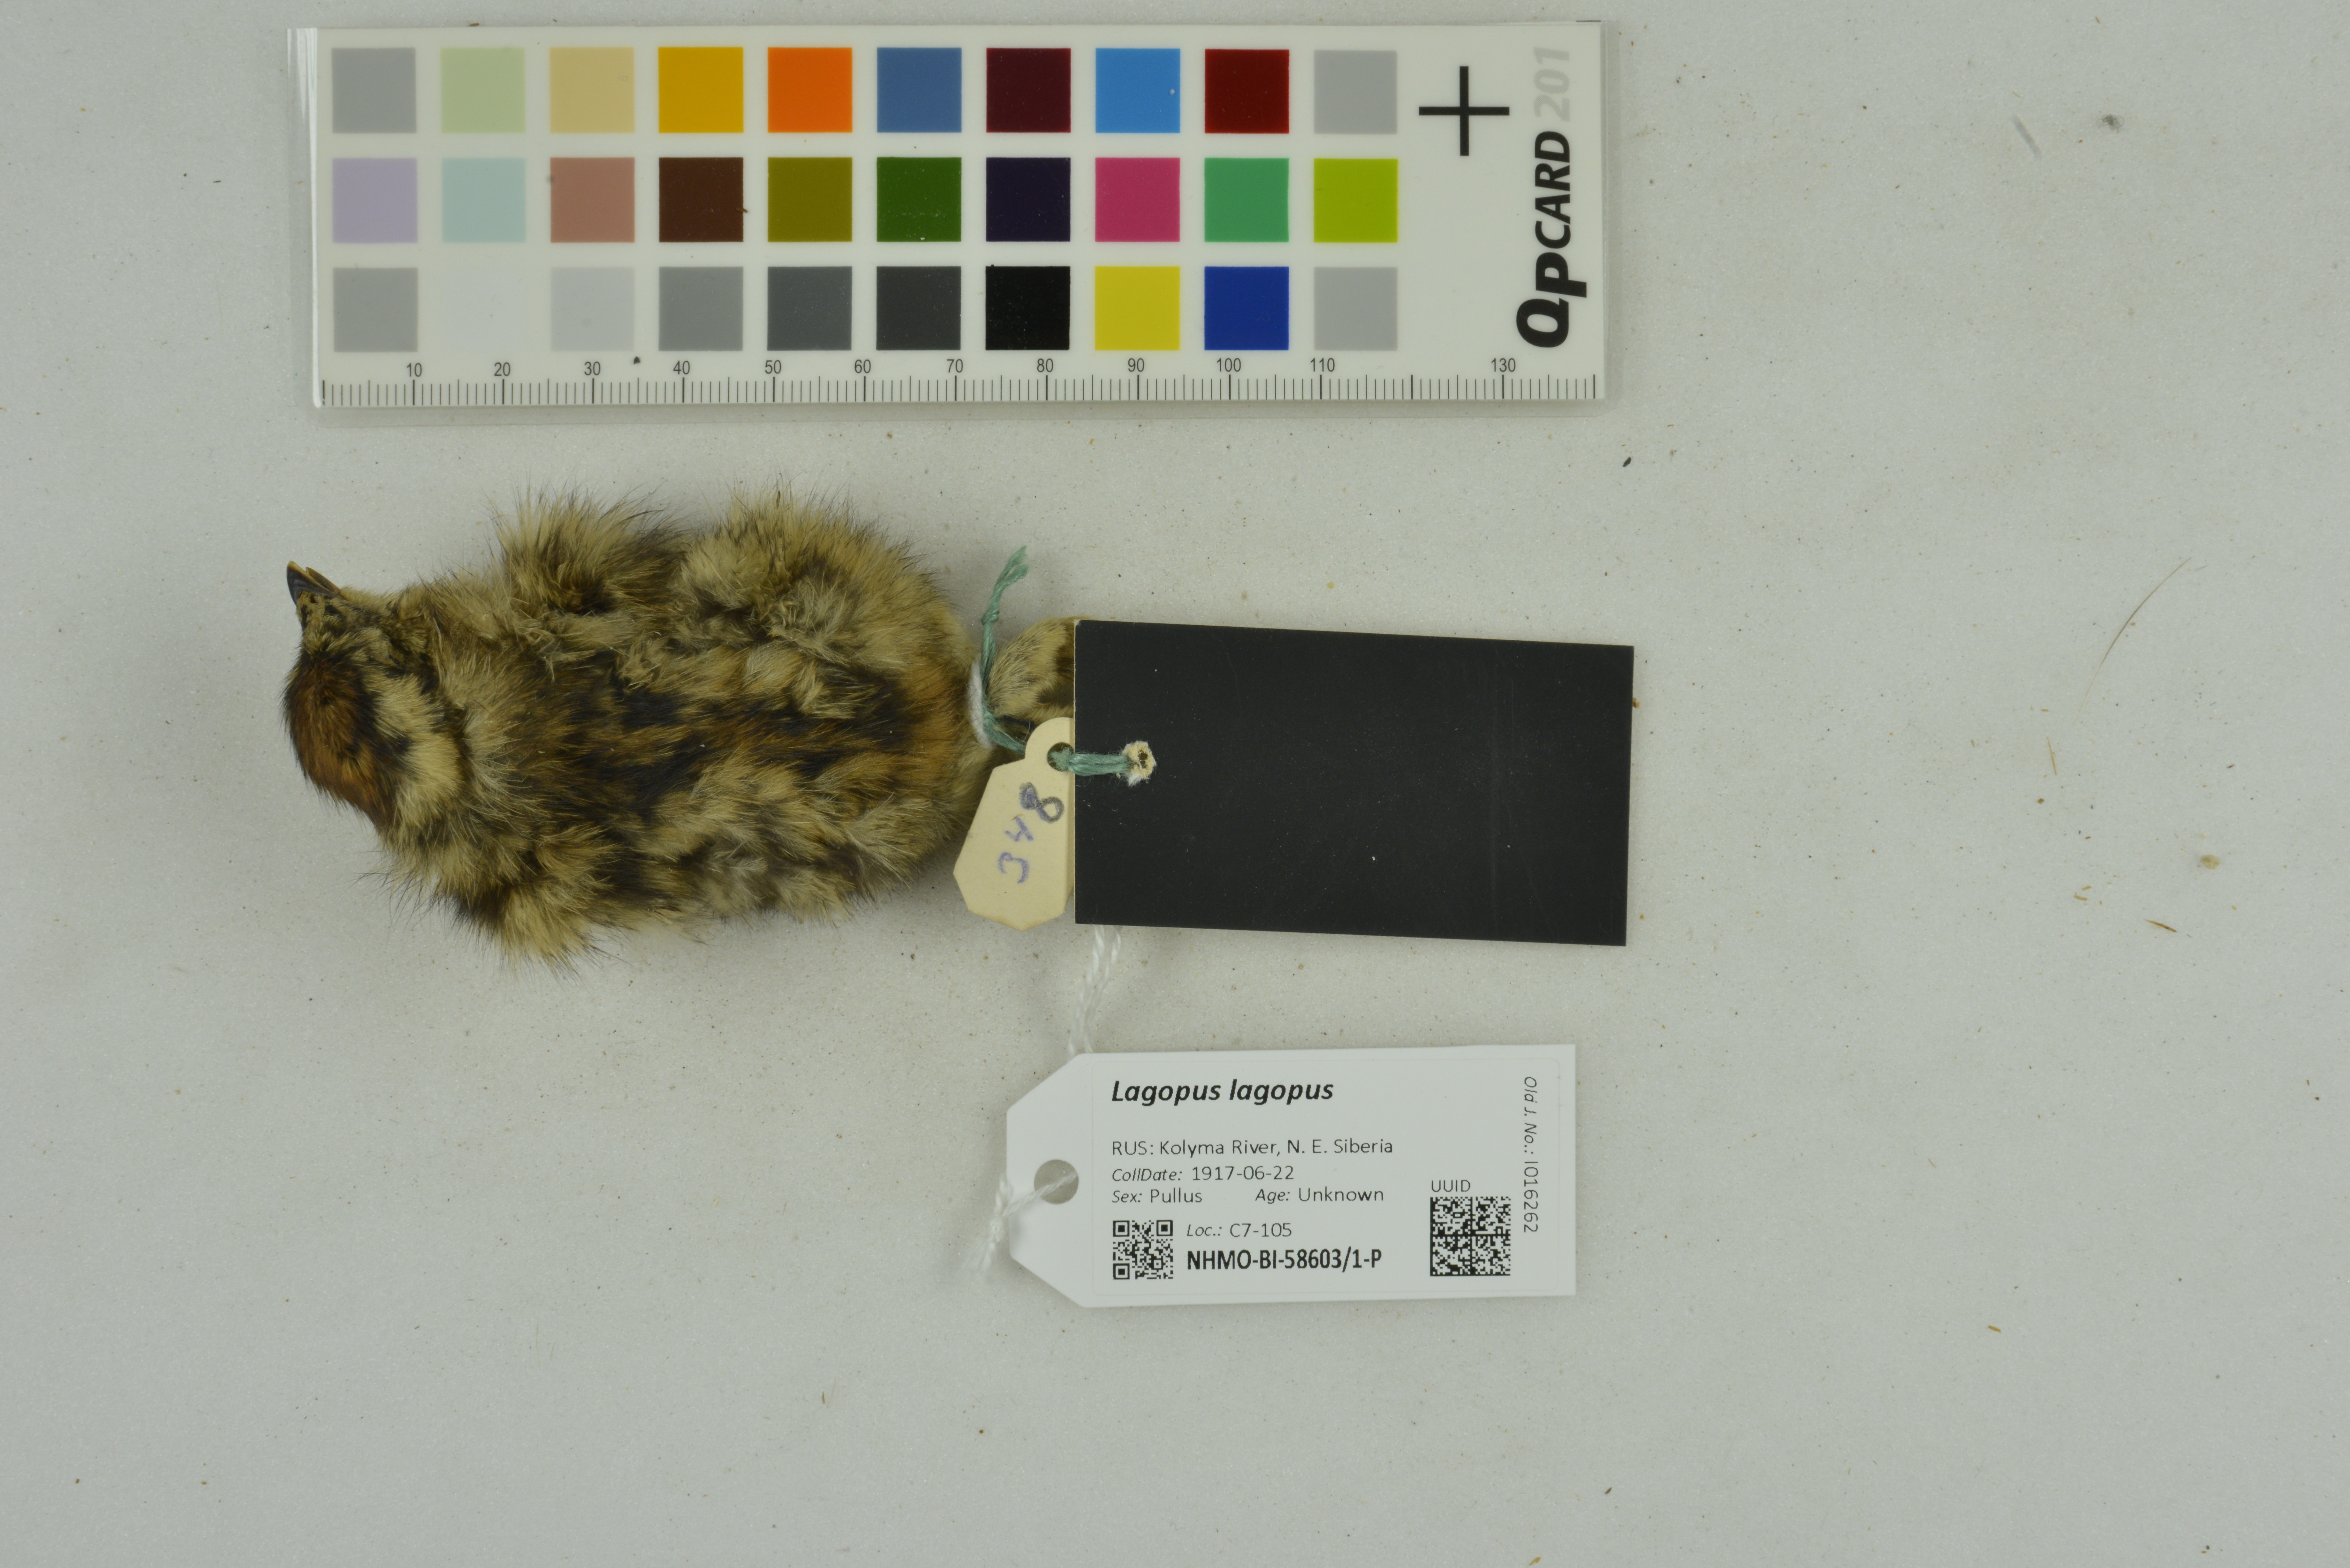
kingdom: Animalia
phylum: Chordata
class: Aves
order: Galliformes
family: Phasianidae
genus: Lagopus
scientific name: Lagopus lagopus
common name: Willow ptarmigan
